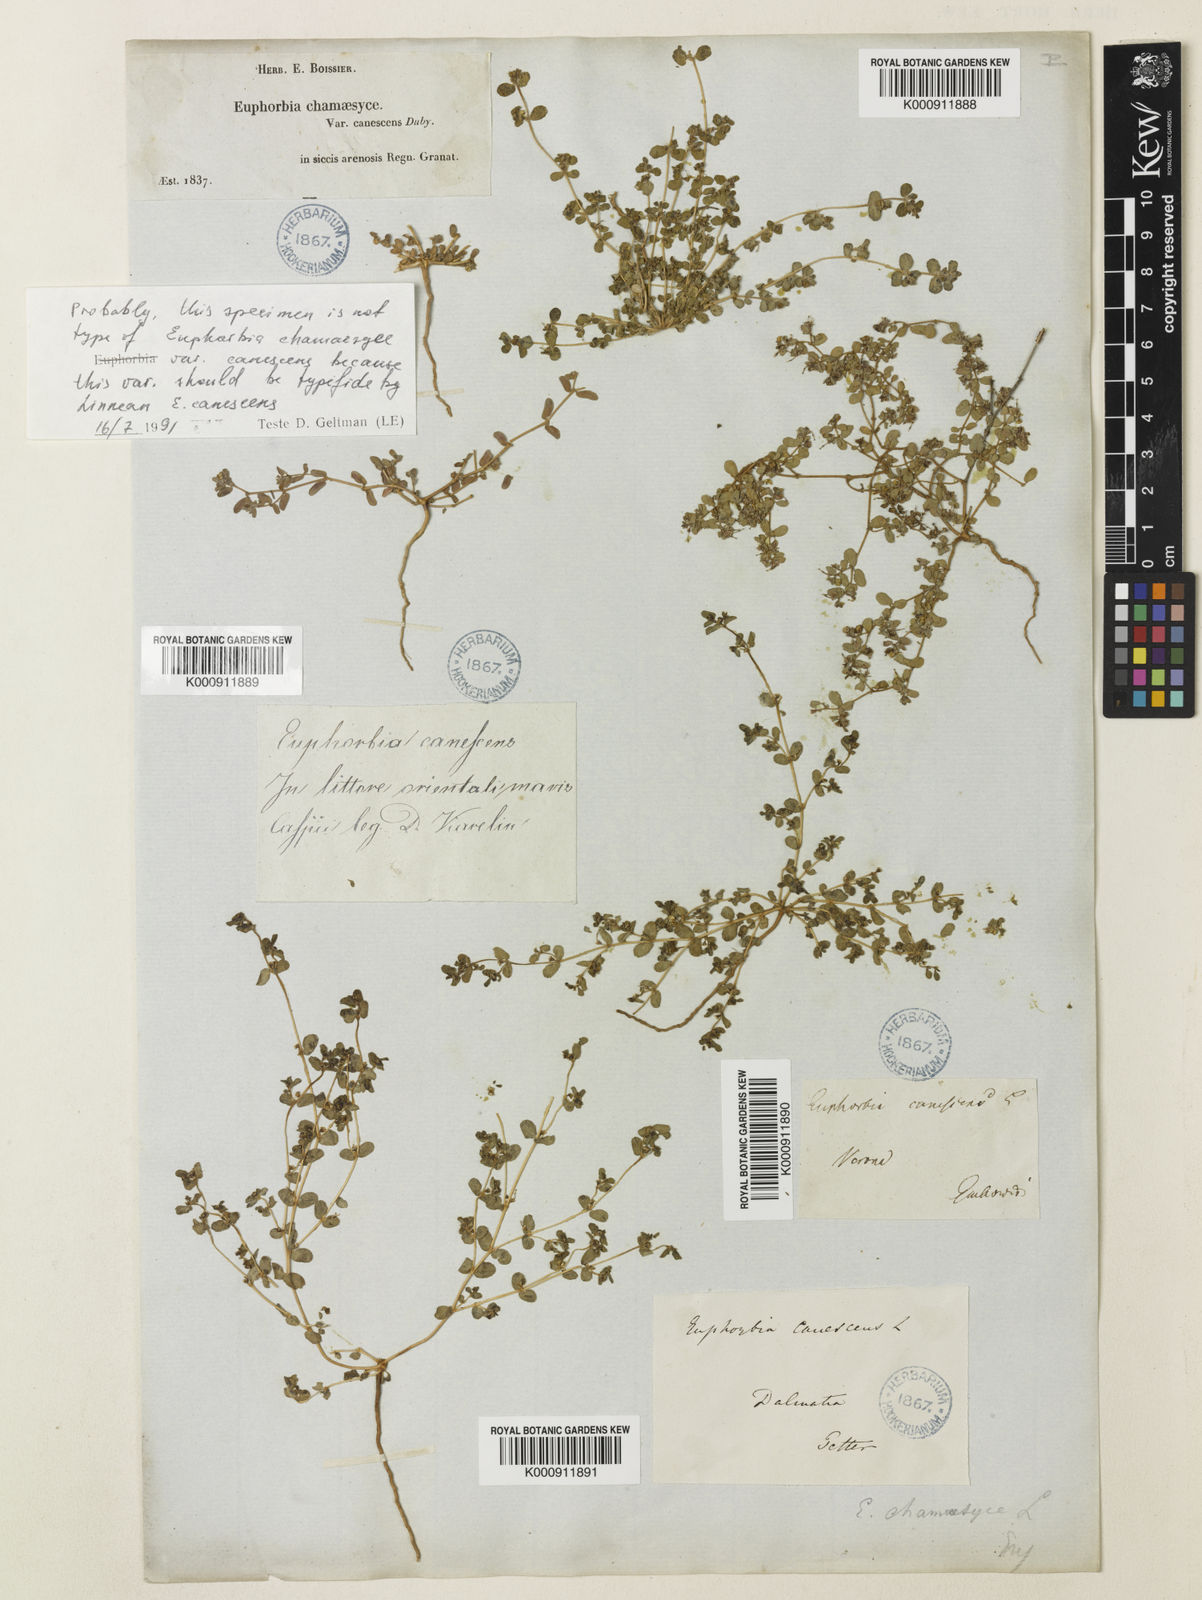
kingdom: Plantae
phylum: Tracheophyta
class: Magnoliopsida
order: Malpighiales
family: Euphorbiaceae
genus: Euphorbia
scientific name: Euphorbia
